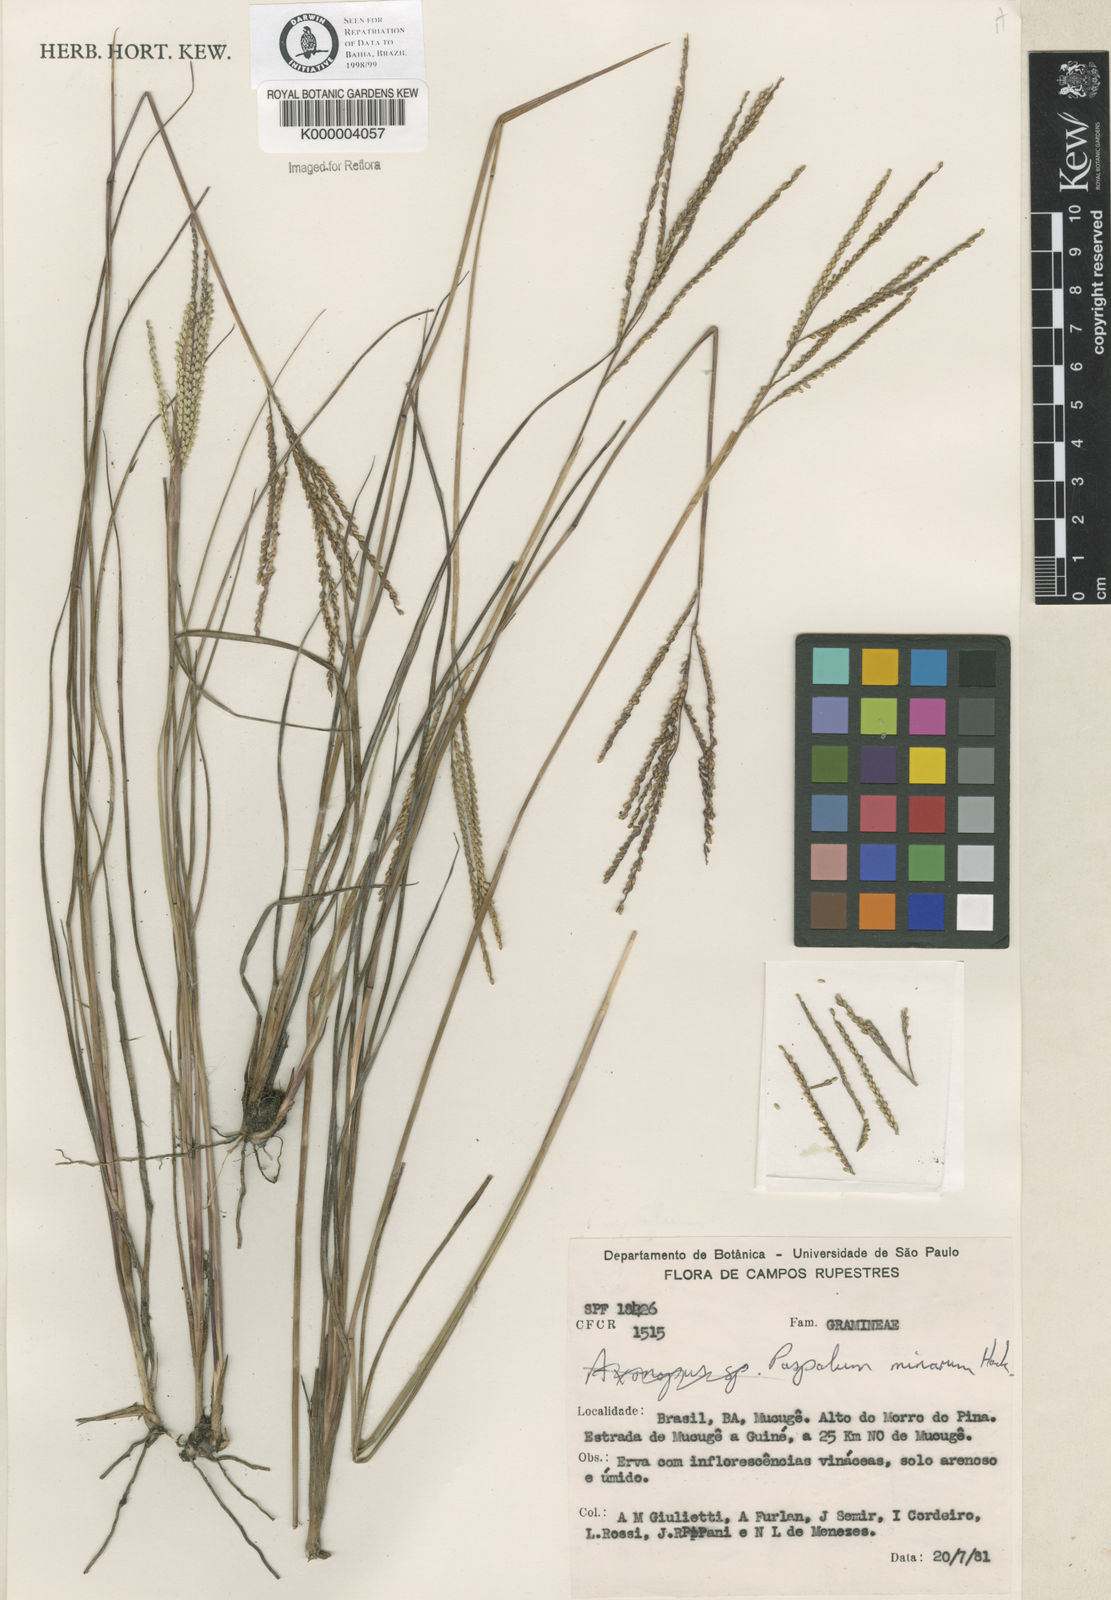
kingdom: Plantae
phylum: Tracheophyta
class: Liliopsida
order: Poales
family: Poaceae
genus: Paspalum
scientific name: Paspalum minarum
